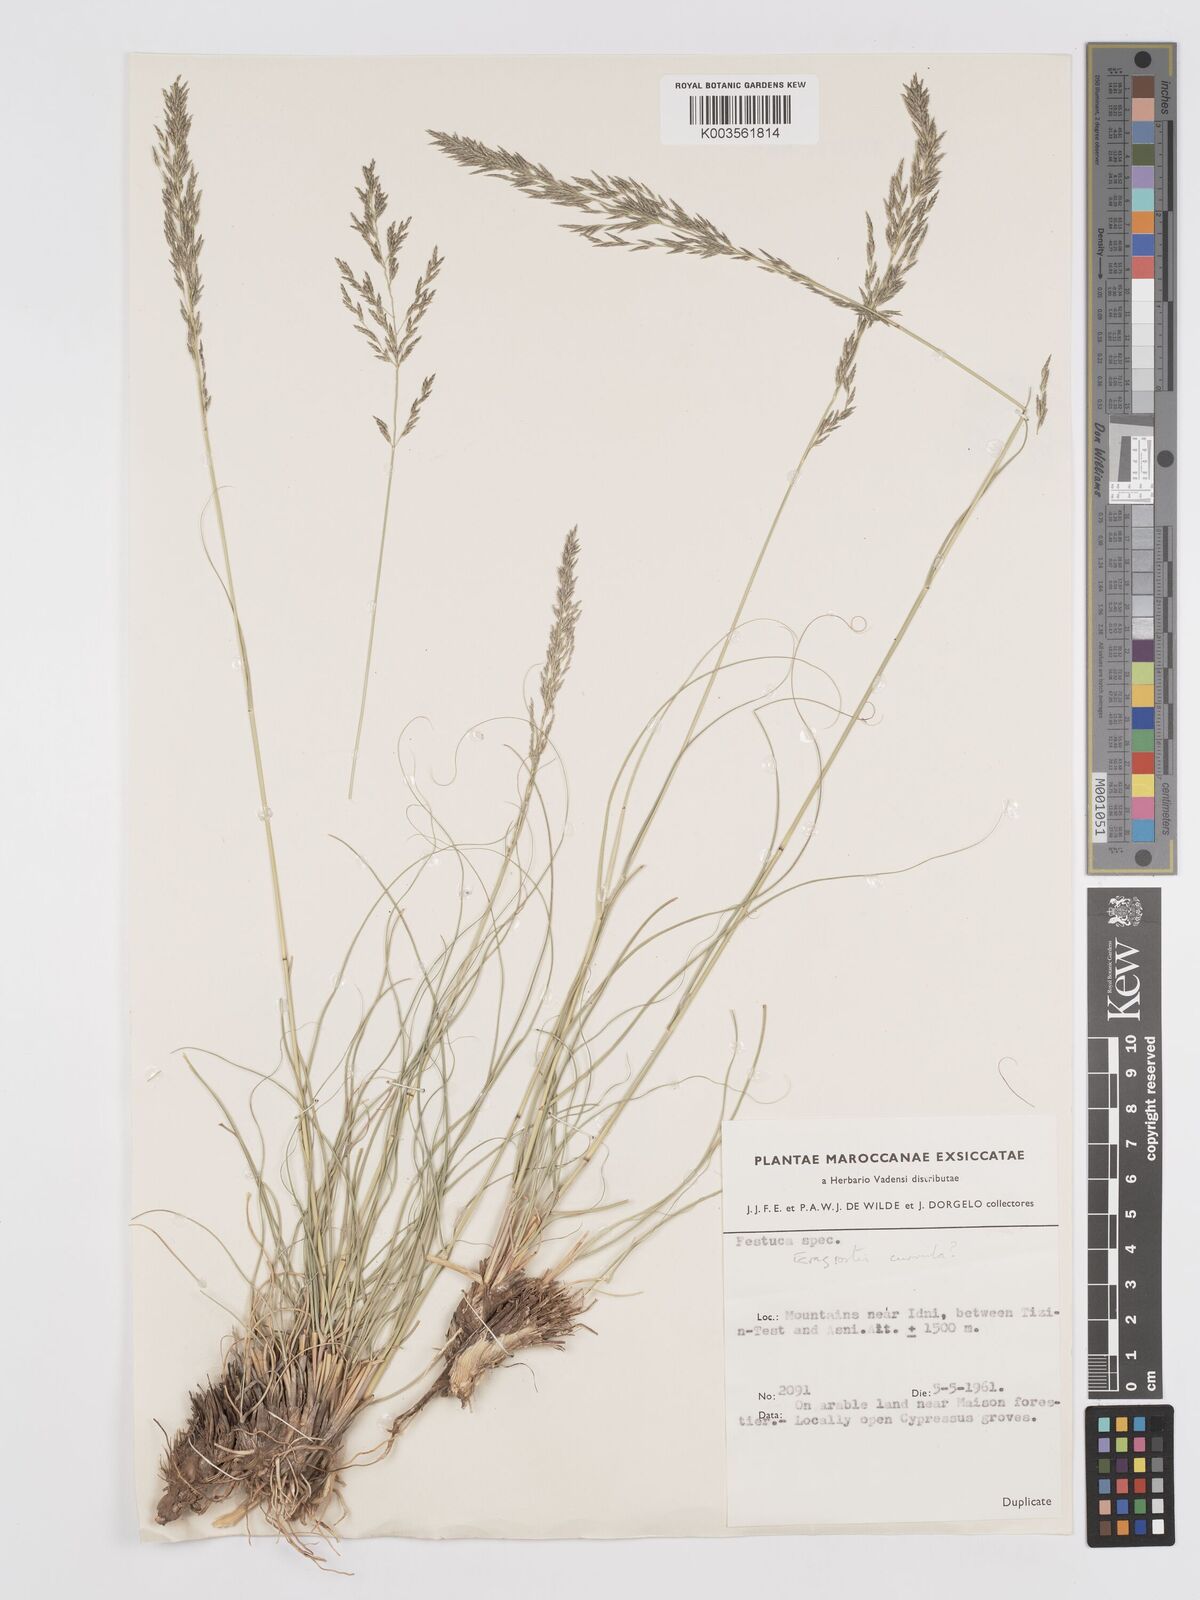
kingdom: Plantae
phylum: Tracheophyta
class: Liliopsida
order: Poales
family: Poaceae
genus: Eragrostis
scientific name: Eragrostis curvula
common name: African love-grass
